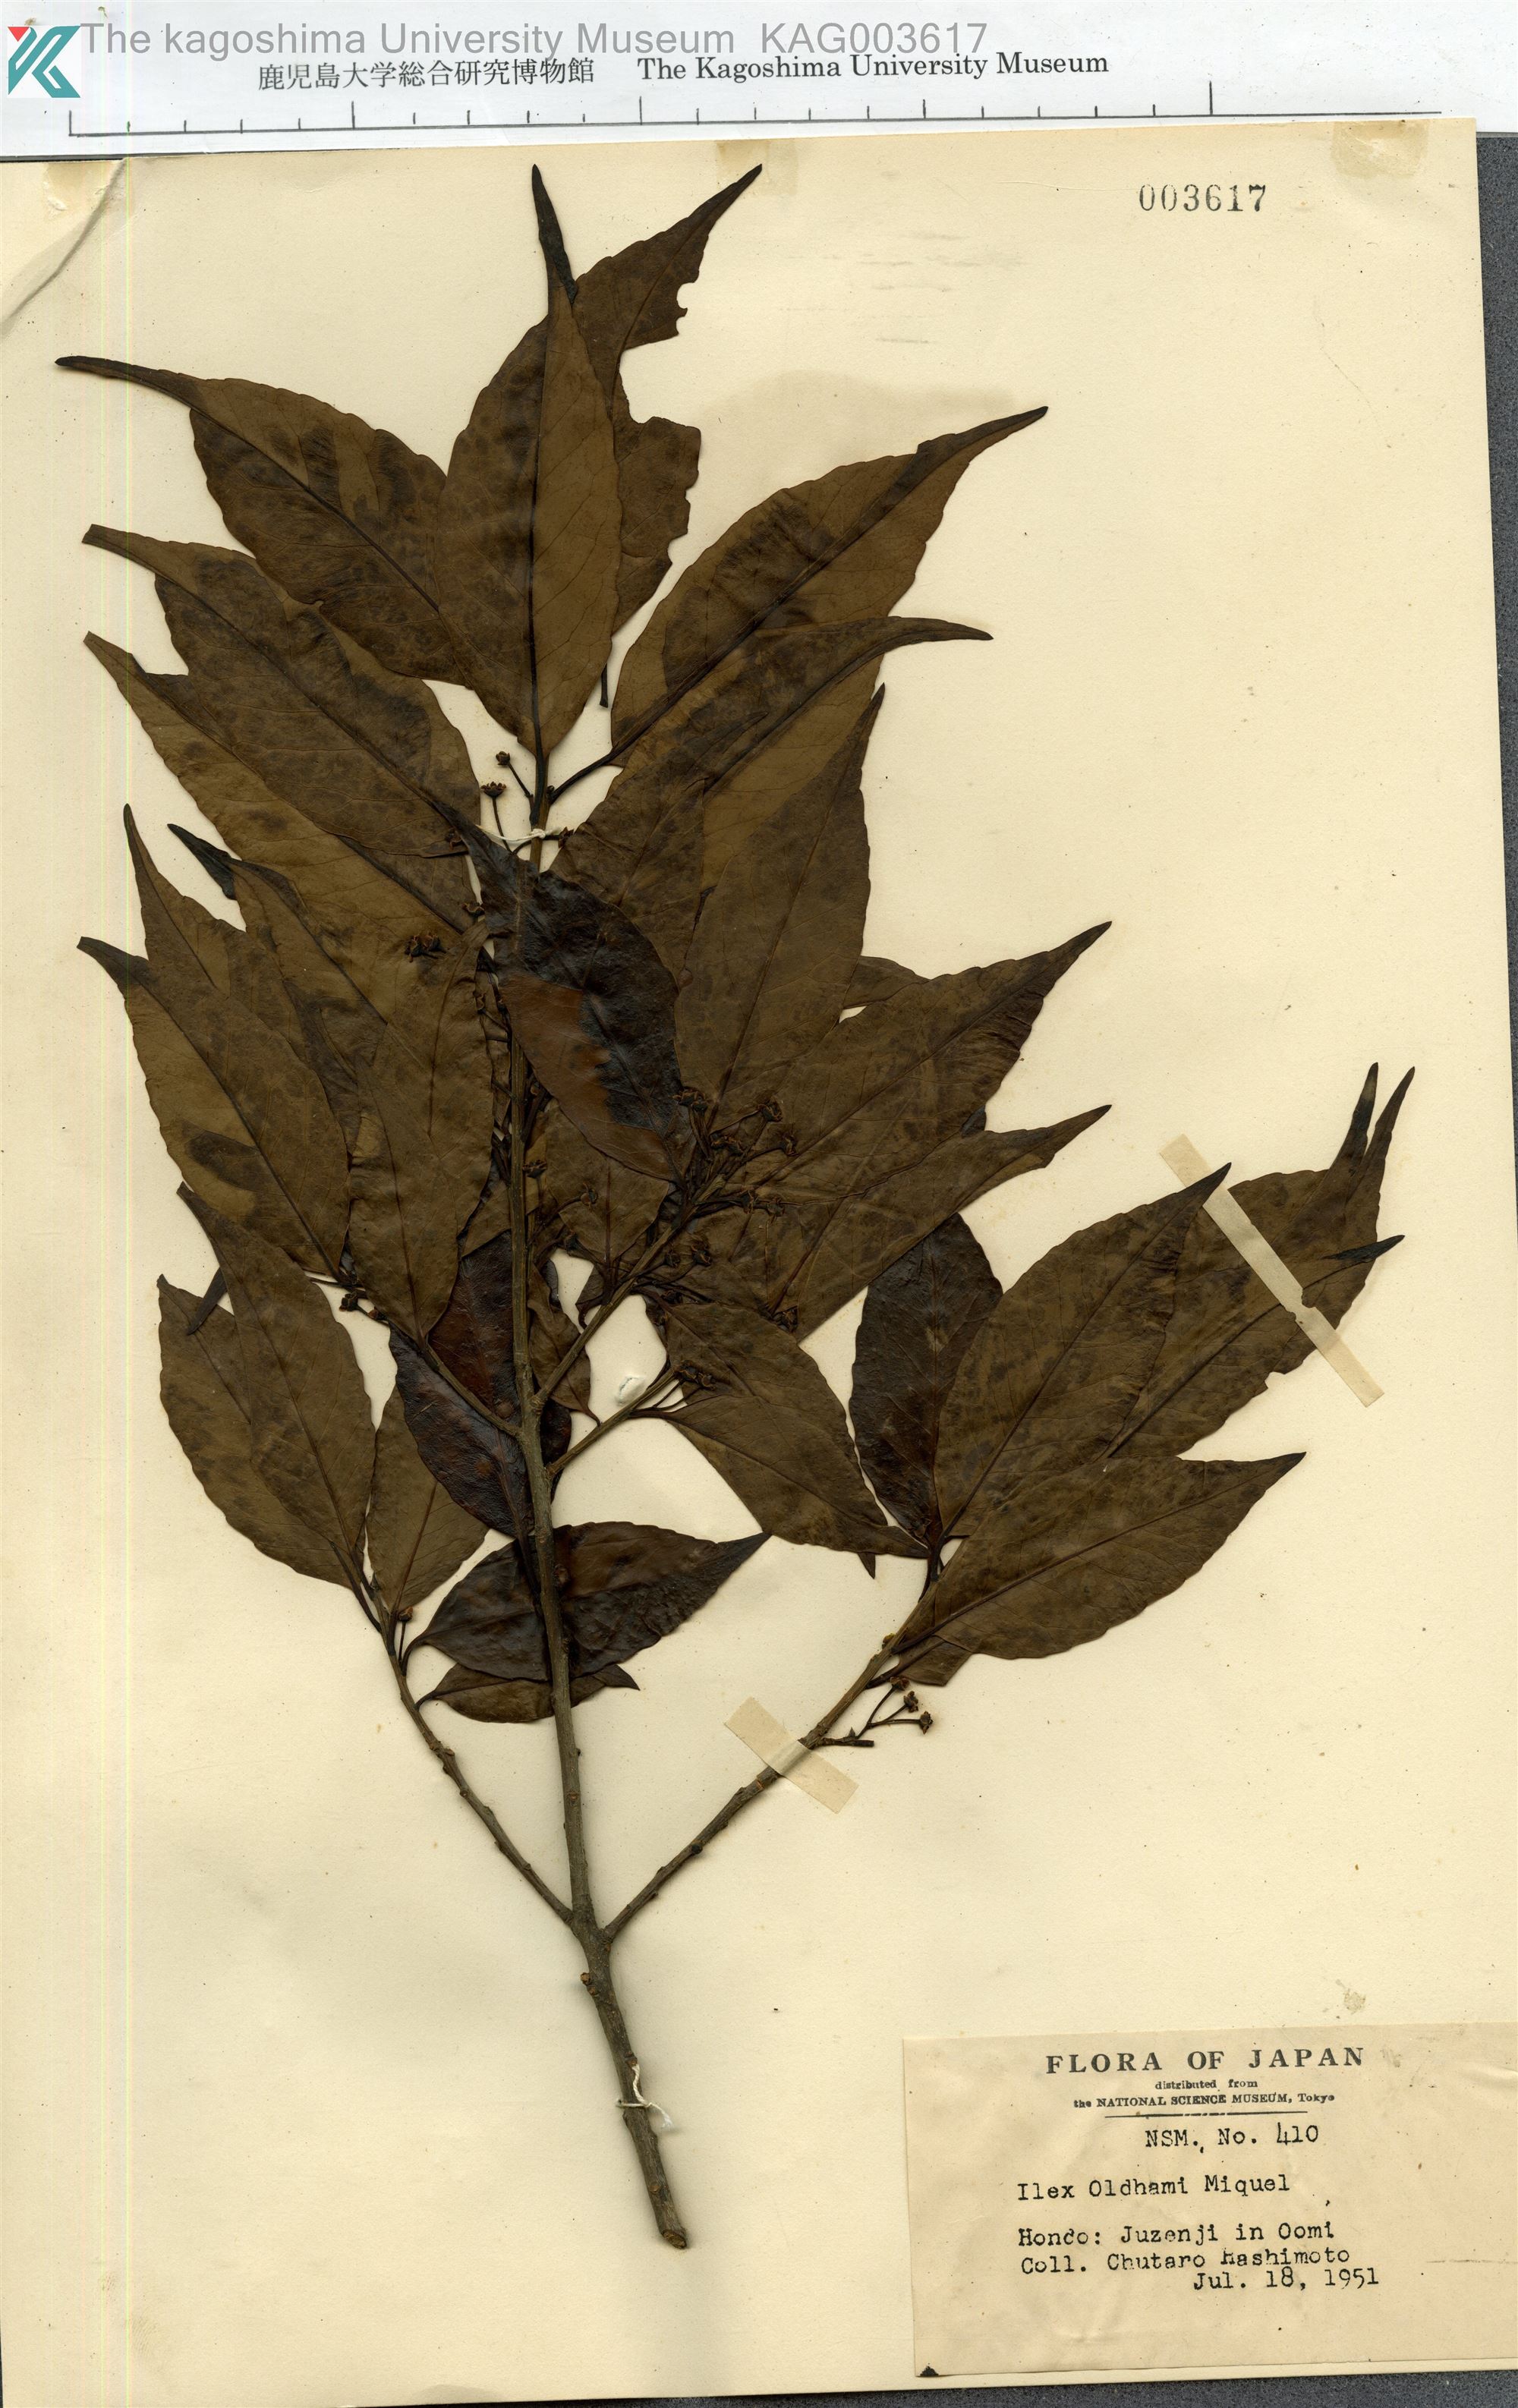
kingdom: Plantae
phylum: Tracheophyta
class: Magnoliopsida
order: Aquifoliales
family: Aquifoliaceae
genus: Ilex
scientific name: Ilex chinensis
